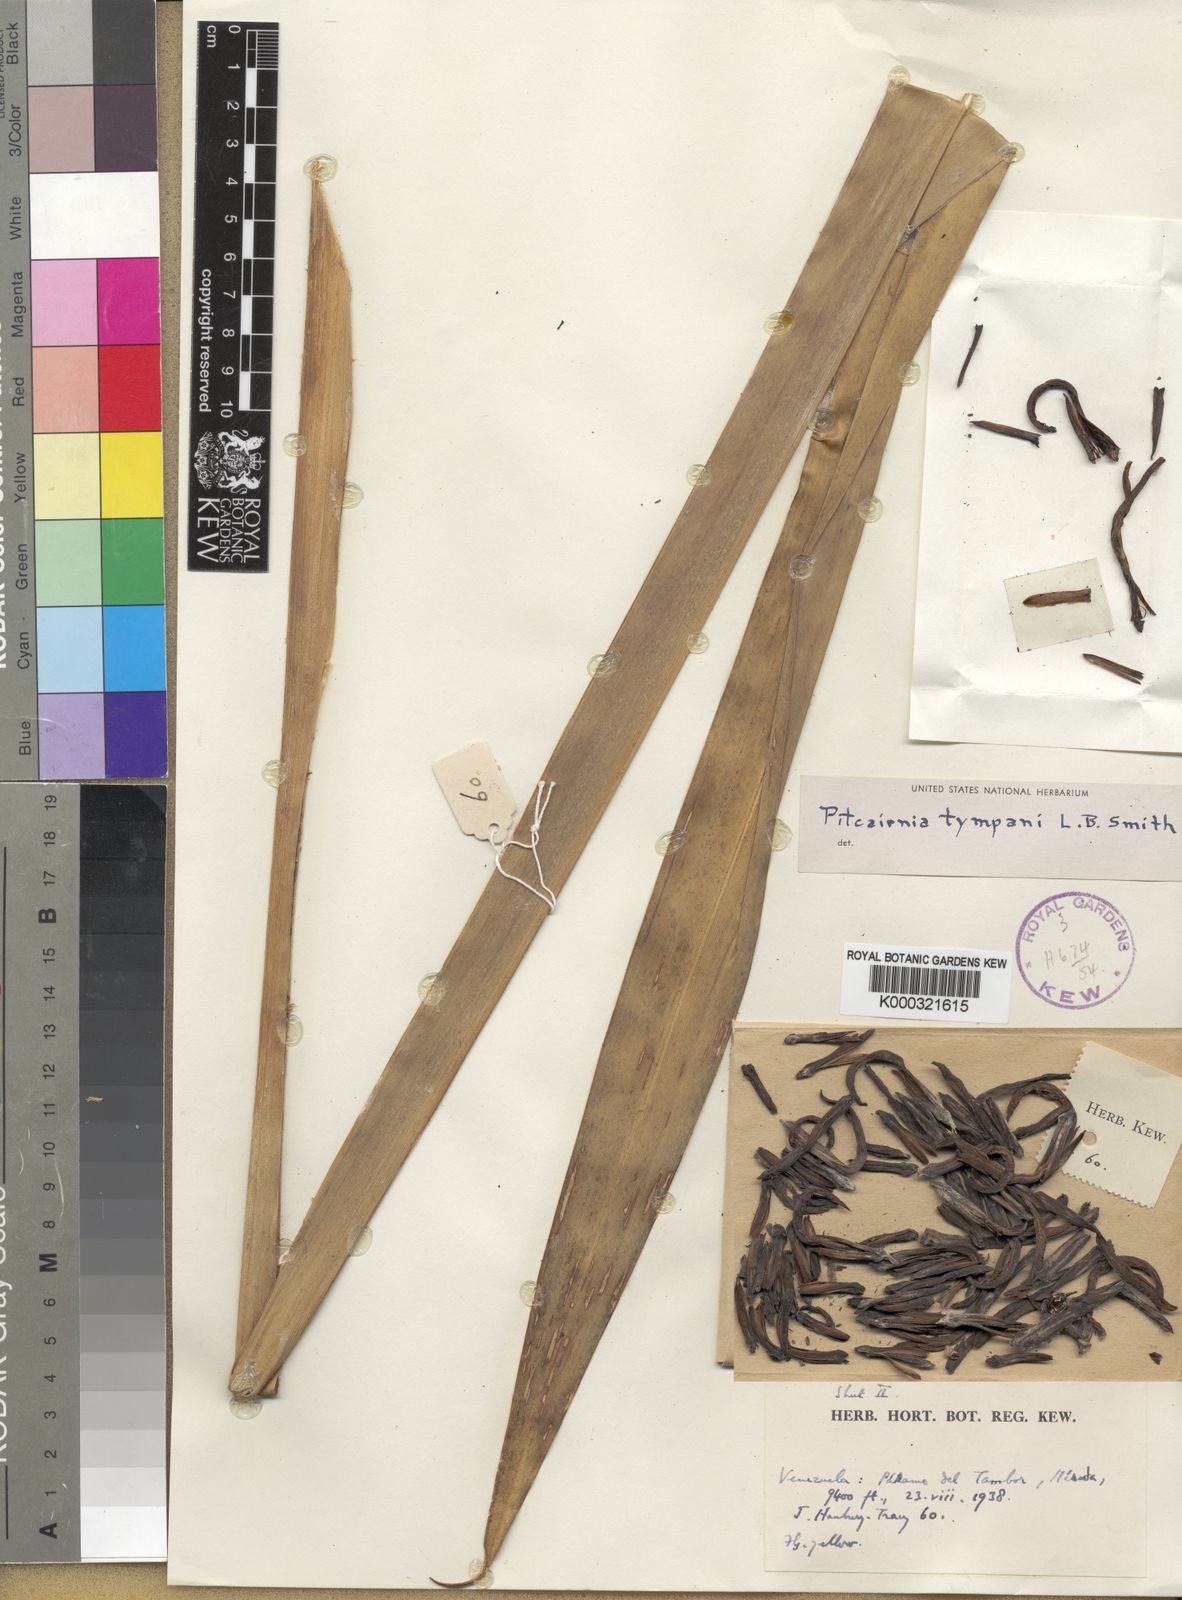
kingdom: Plantae
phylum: Tracheophyta
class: Liliopsida
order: Poales
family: Bromeliaceae
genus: Pitcairnia
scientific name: Pitcairnia tympani
